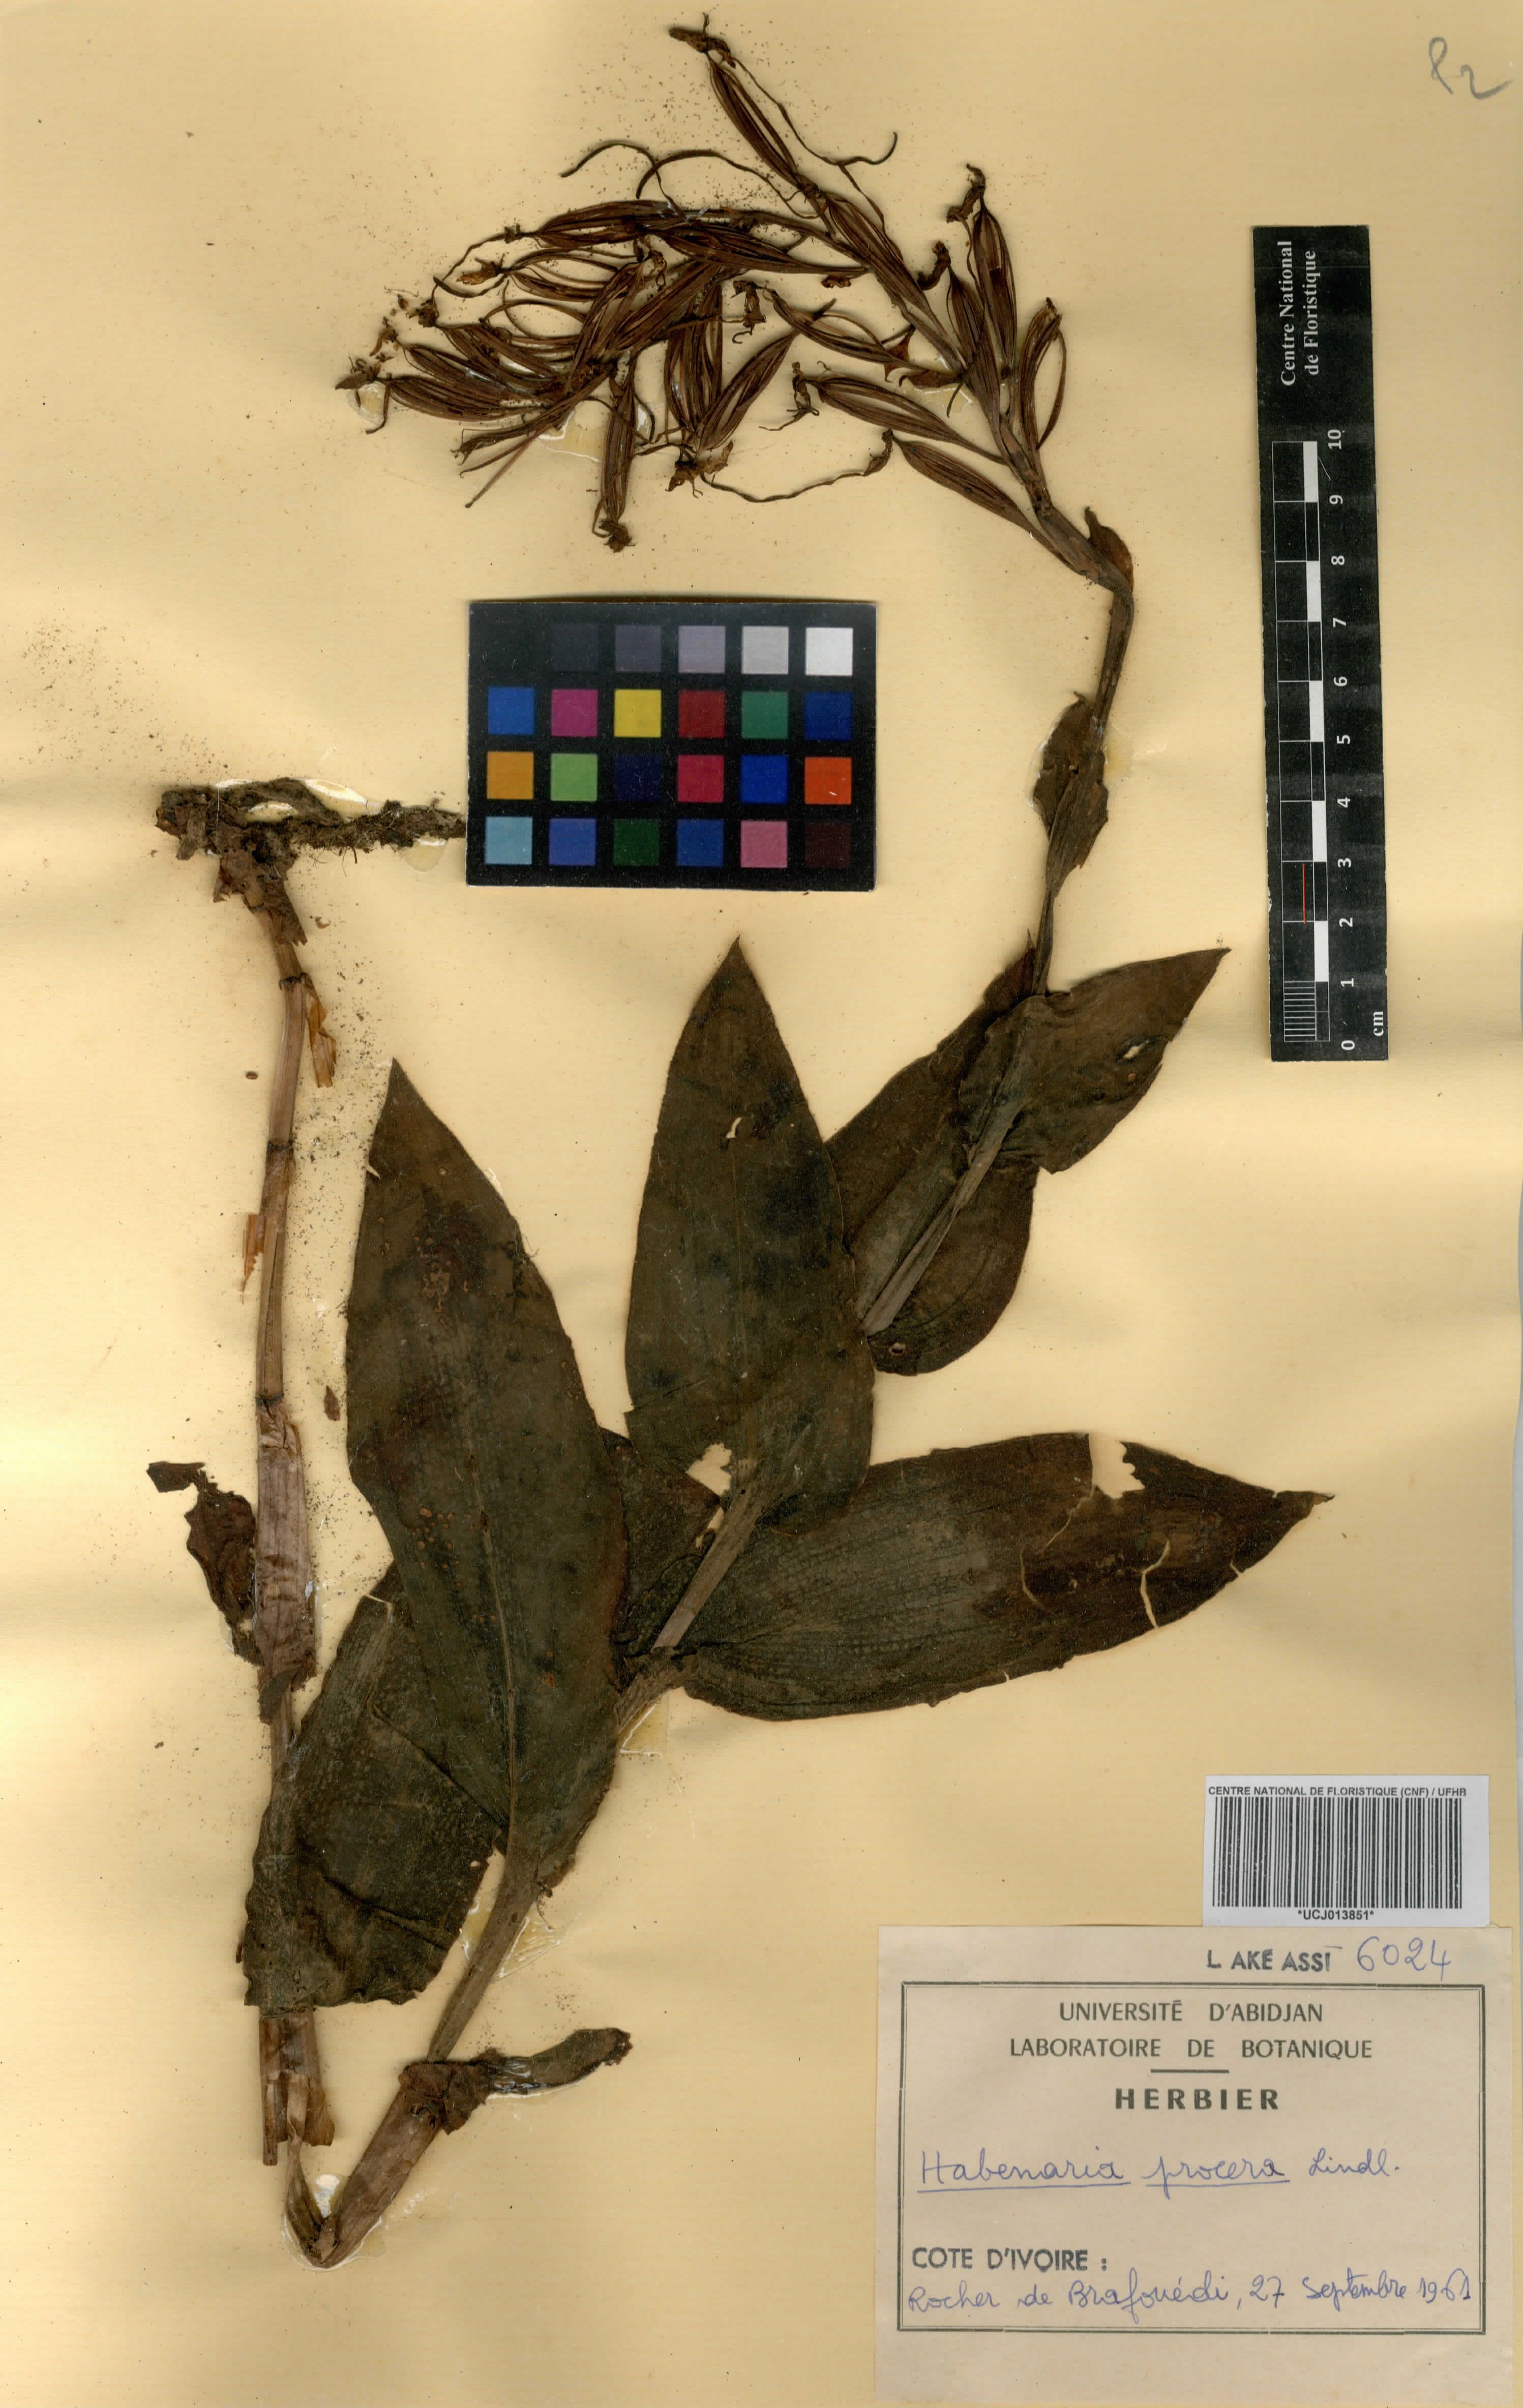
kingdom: Plantae
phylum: Tracheophyta
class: Liliopsida
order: Asparagales
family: Orchidaceae
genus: Habenaria
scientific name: Habenaria procera
